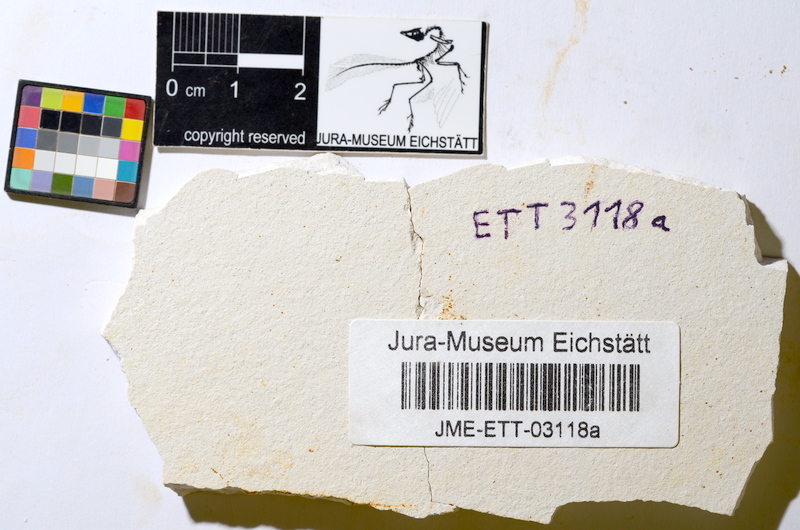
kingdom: Animalia
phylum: Chordata
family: Ascalaboidae
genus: Ebertichthys
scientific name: Ebertichthys ettlingensis
